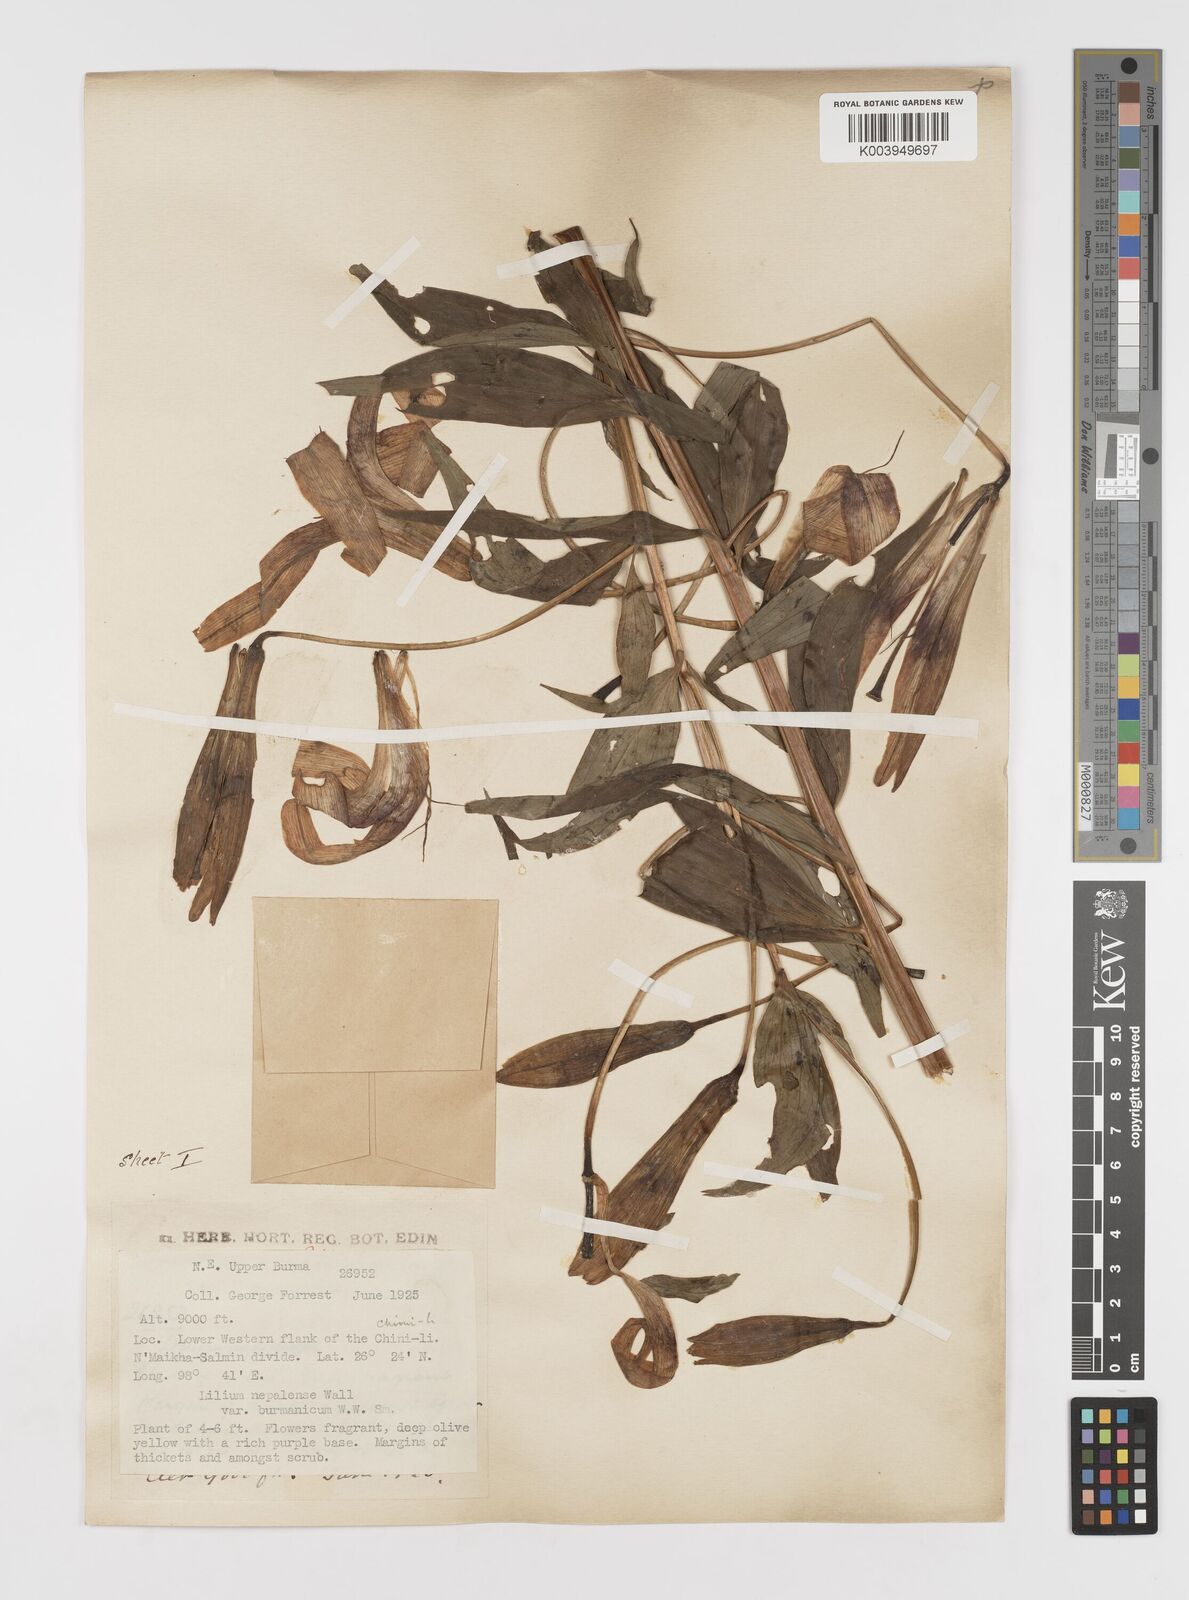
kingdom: Plantae
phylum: Tracheophyta
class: Liliopsida
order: Liliales
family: Liliaceae
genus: Lilium
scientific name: Lilium primulinum
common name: Ochre lily
